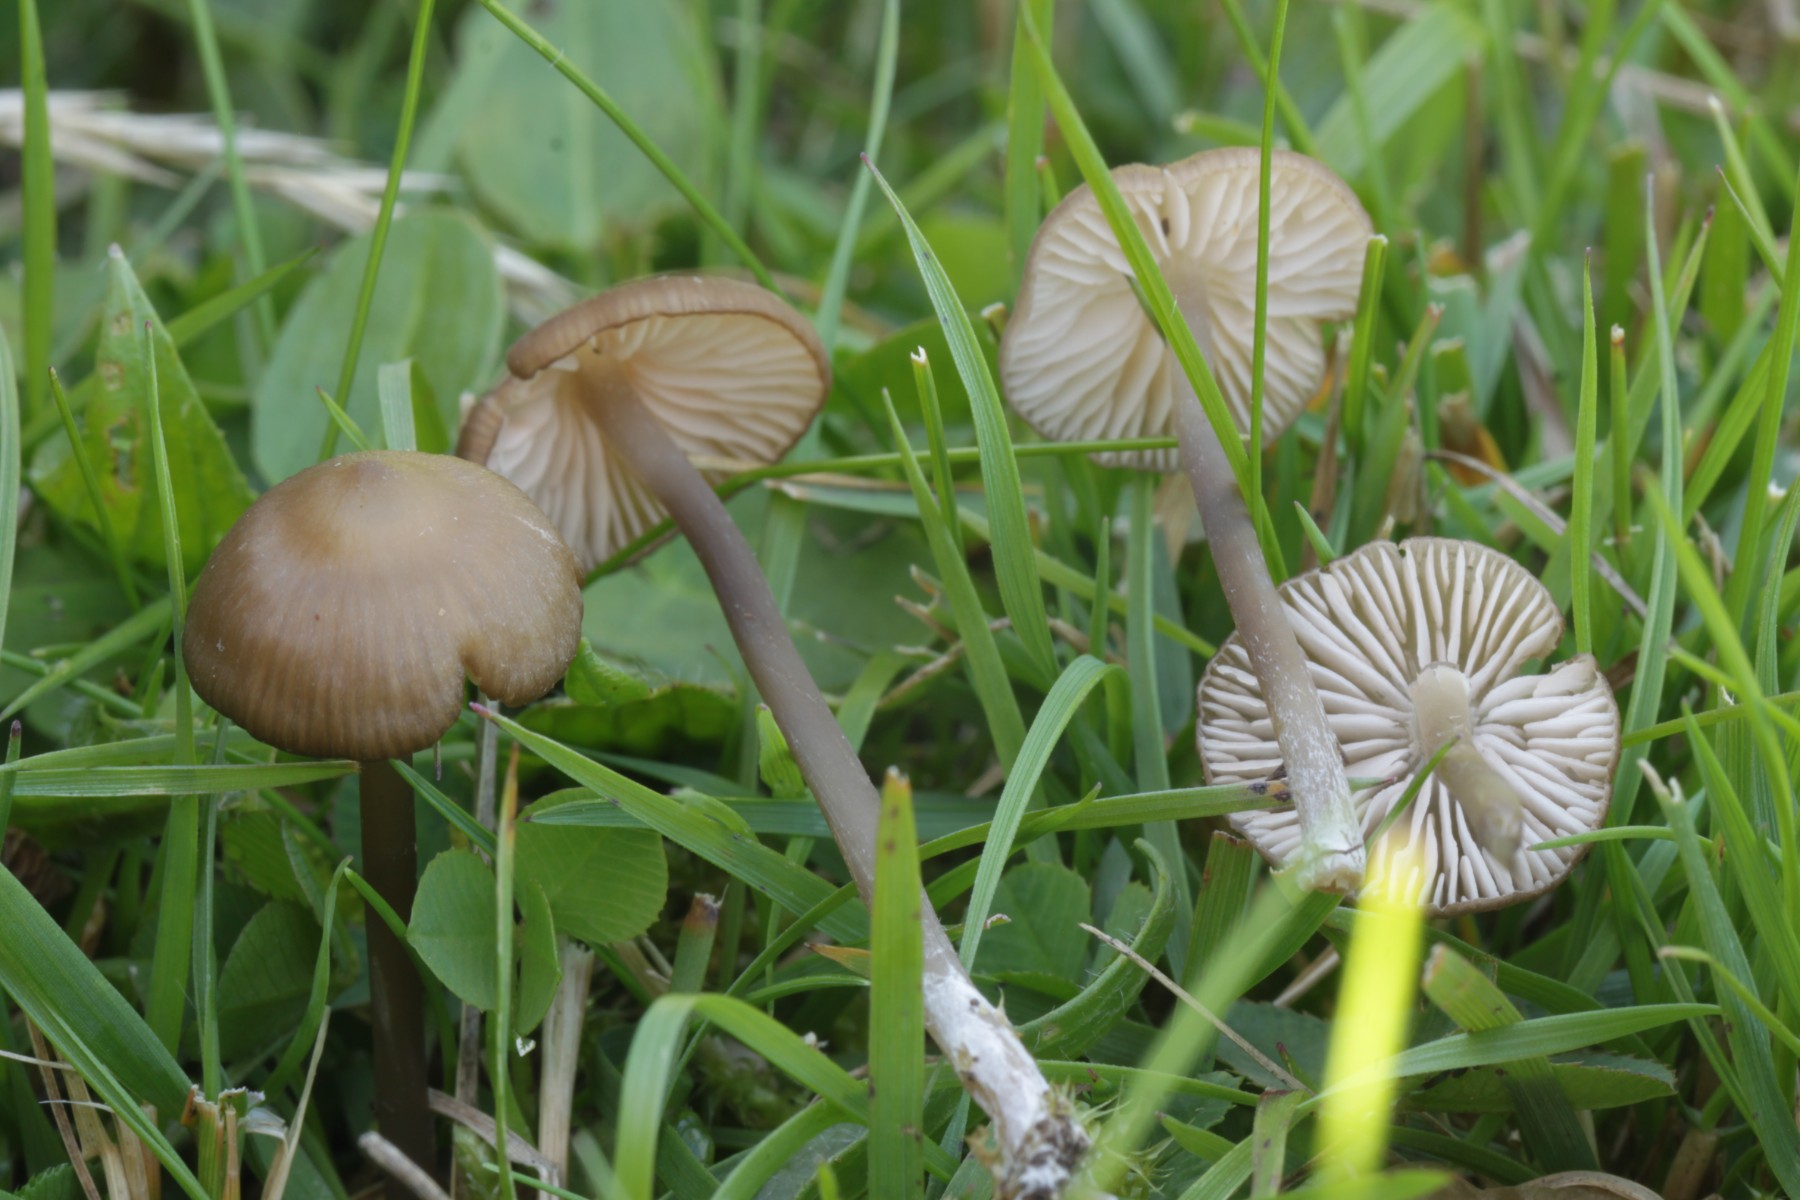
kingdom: Fungi
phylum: Basidiomycota
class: Agaricomycetes
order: Agaricales
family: Entolomataceae
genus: Entoloma
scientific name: Entoloma infula
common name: hvidbladet rødblad
